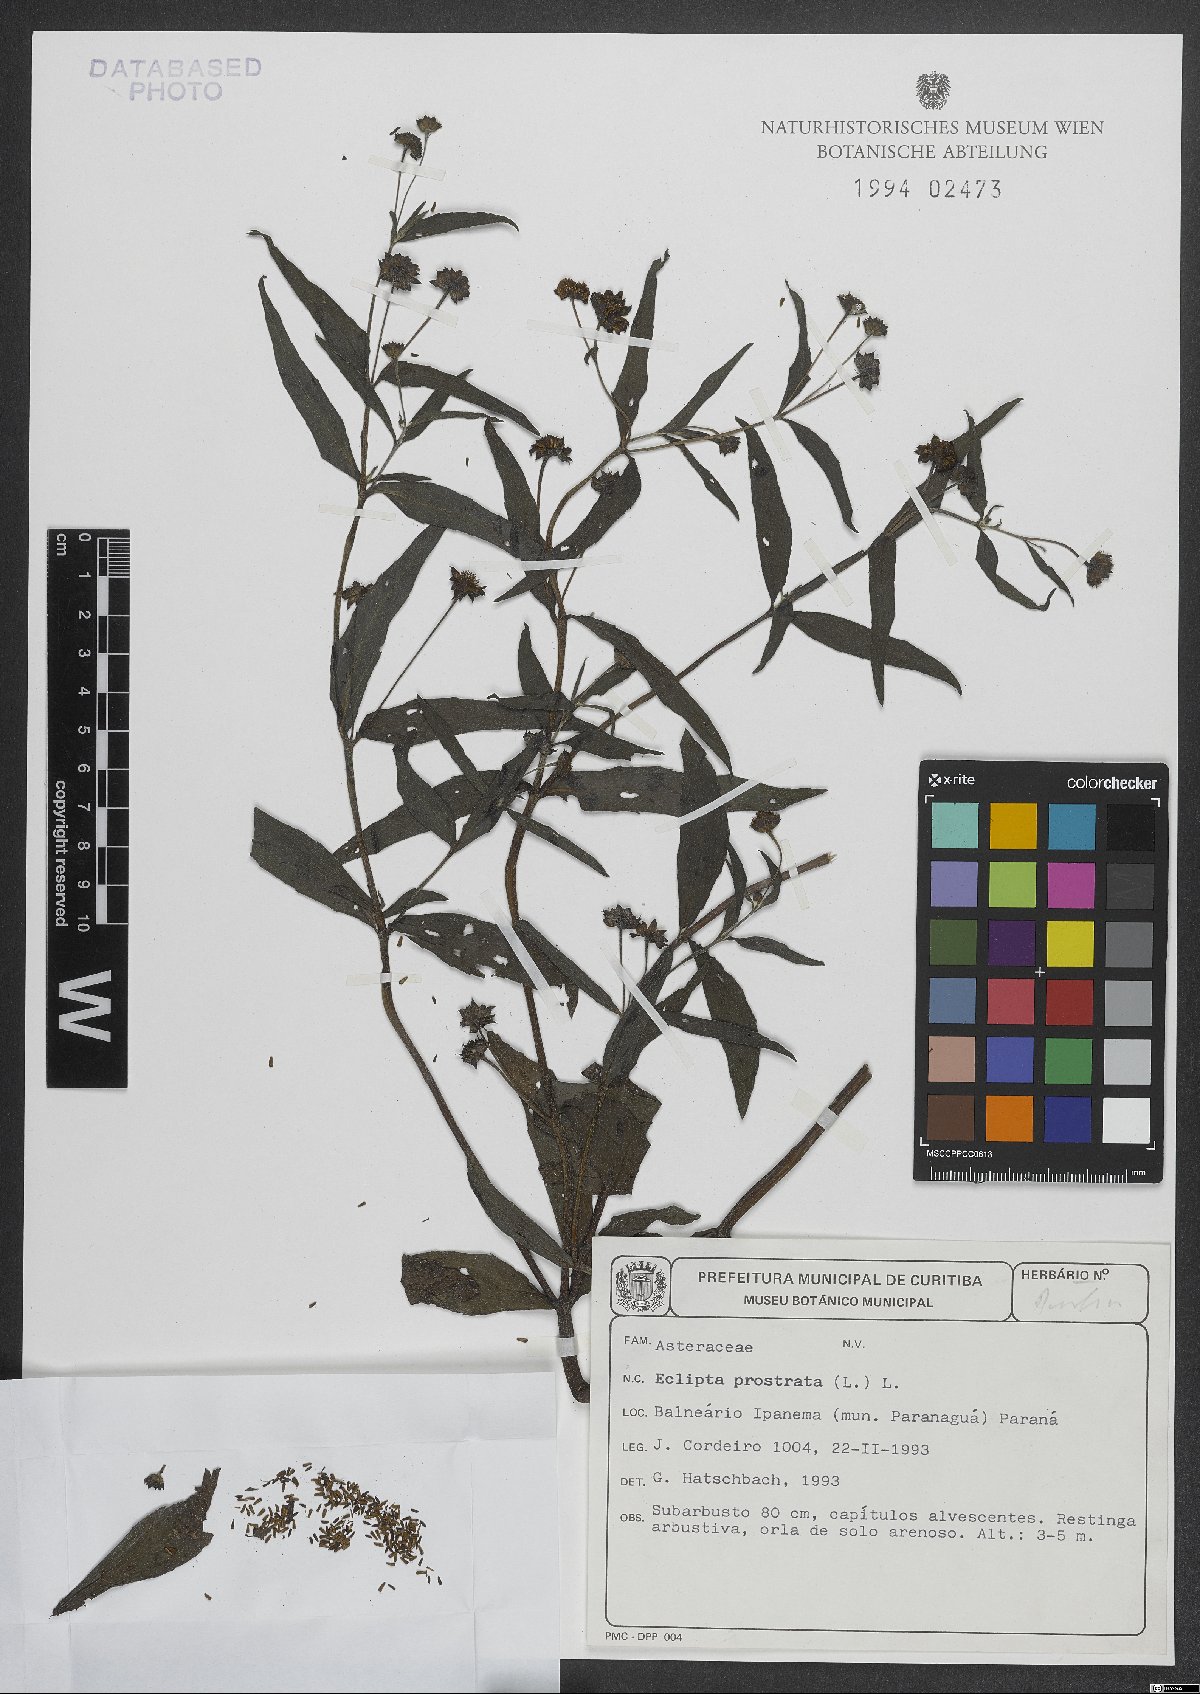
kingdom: Plantae
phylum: Tracheophyta
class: Magnoliopsida
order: Asterales
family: Asteraceae
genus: Eclipta
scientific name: Eclipta prostrata
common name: False daisy
